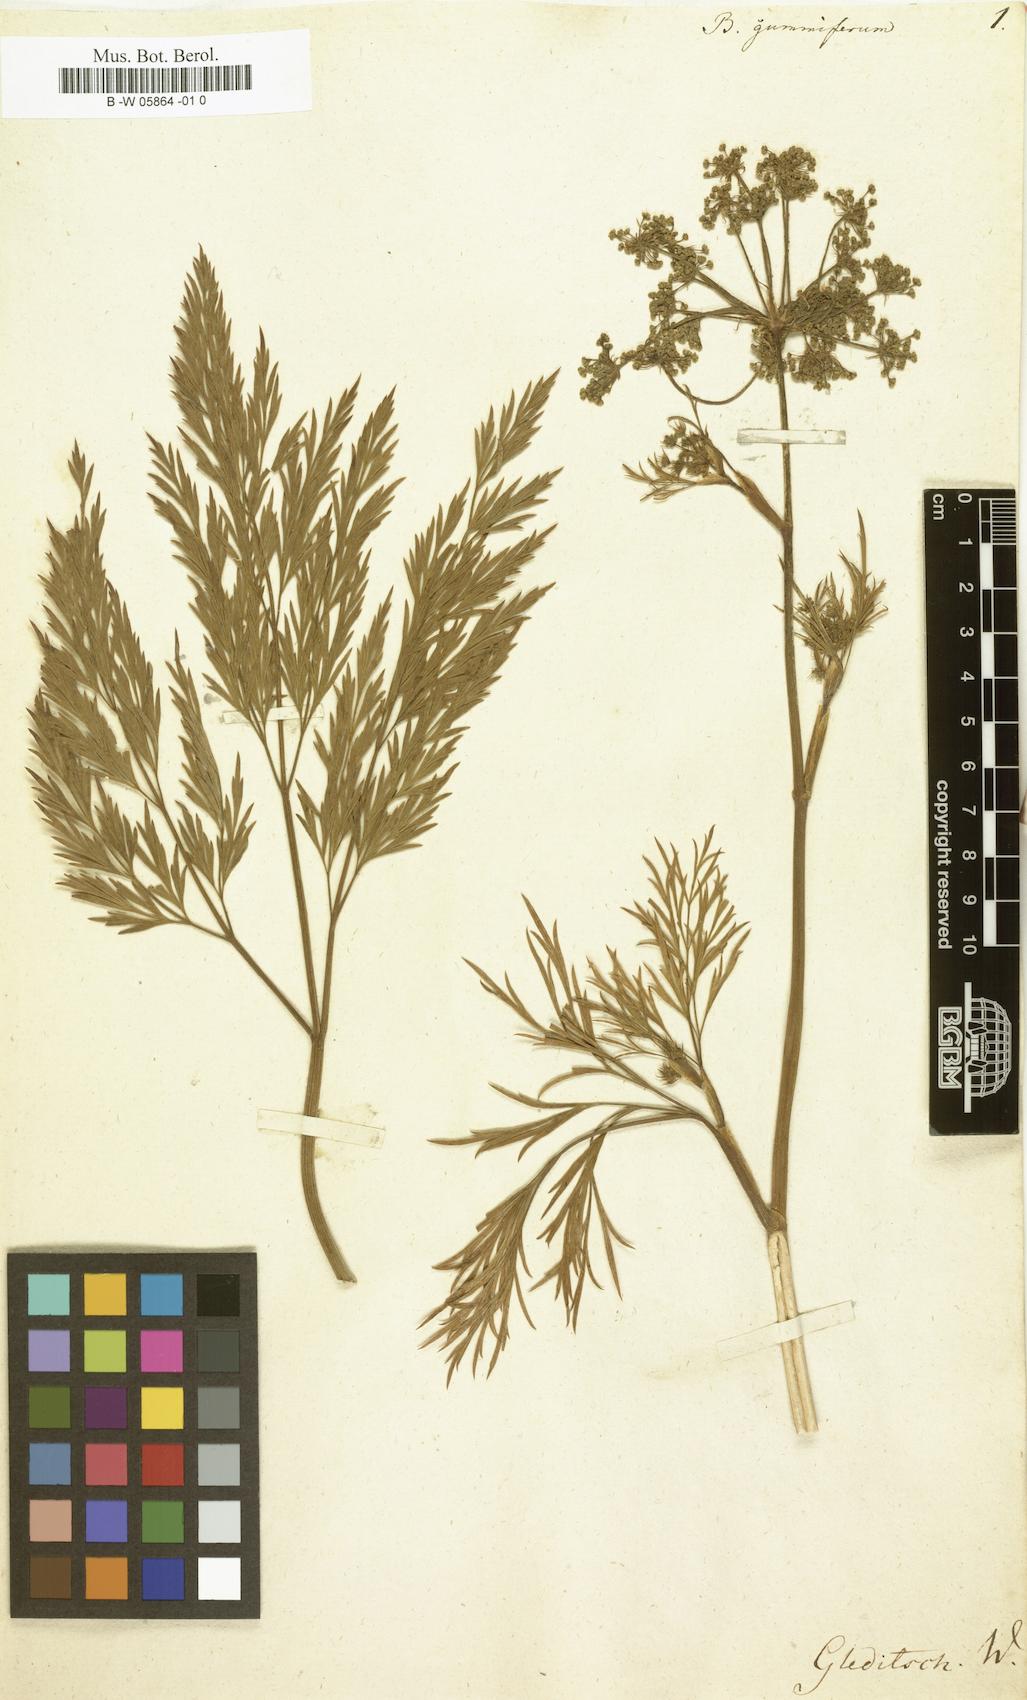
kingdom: Plantae
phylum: Tracheophyta
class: Magnoliopsida
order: Apiales
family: Apiaceae
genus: Notobubon
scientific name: Notobubon gummiferum
